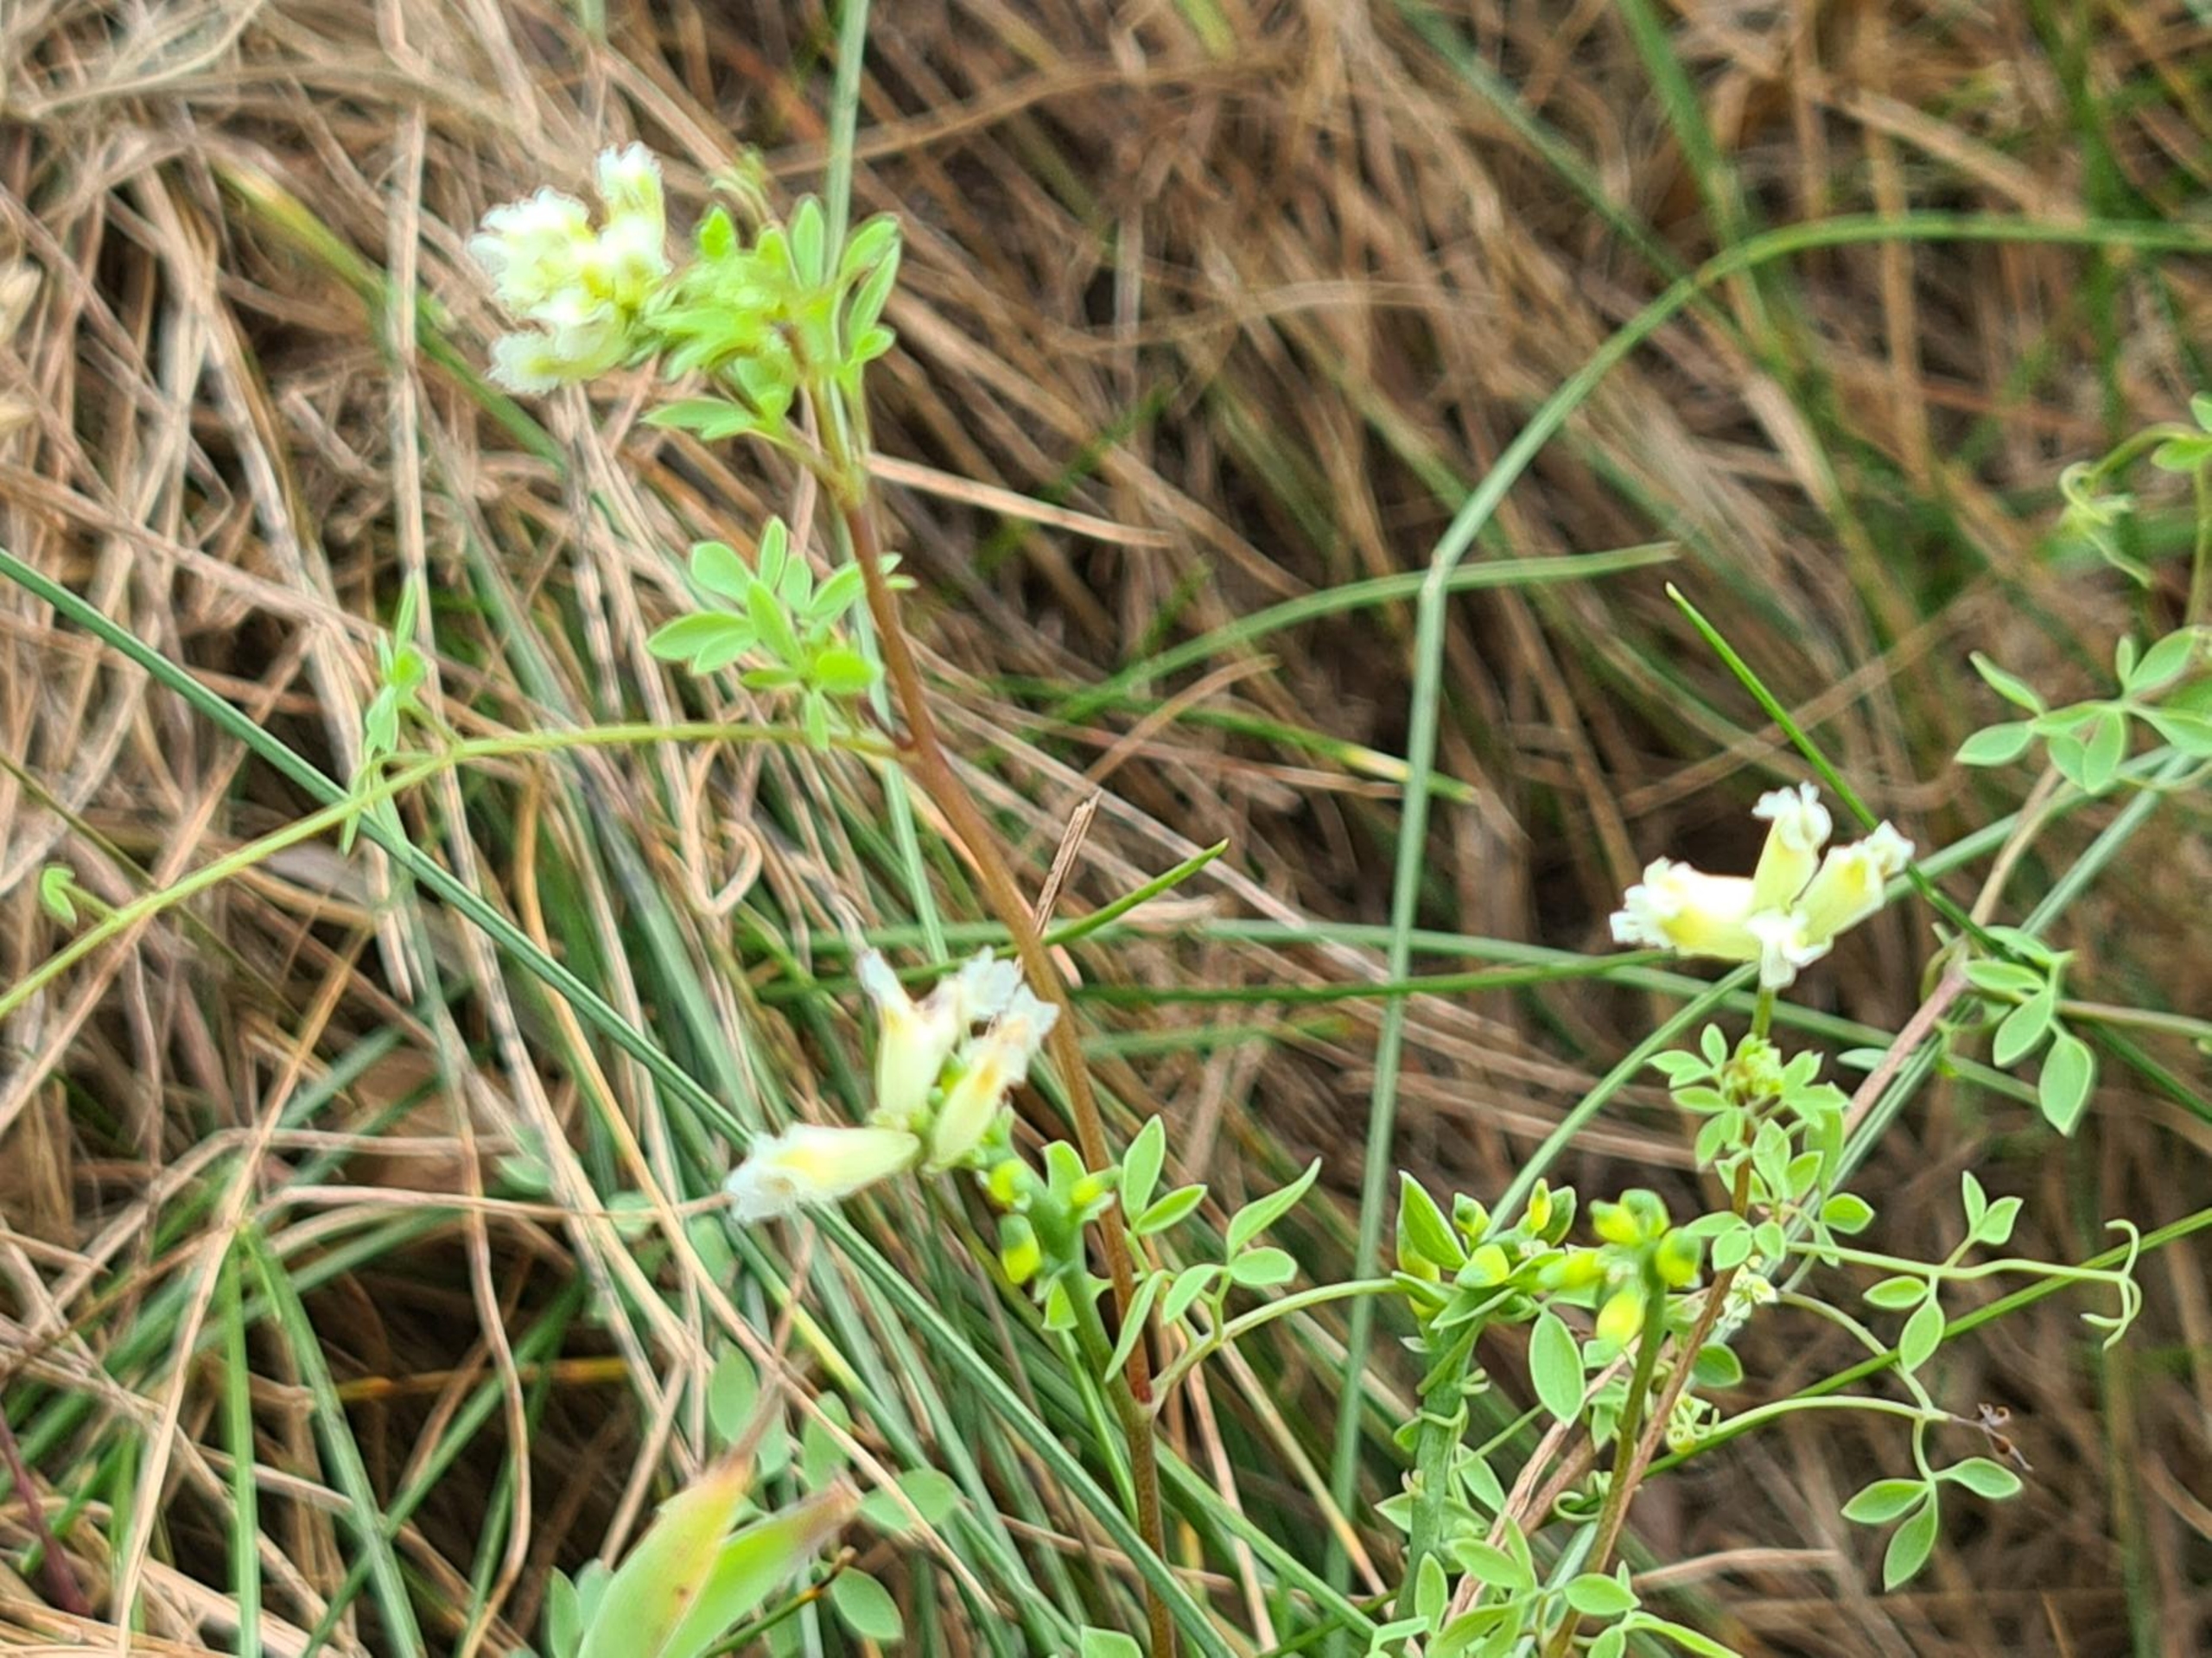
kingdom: Plantae
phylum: Tracheophyta
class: Magnoliopsida
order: Ranunculales
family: Papaveraceae
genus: Ceratocapnos
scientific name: Ceratocapnos claviculata
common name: Klatrende lærkespore
